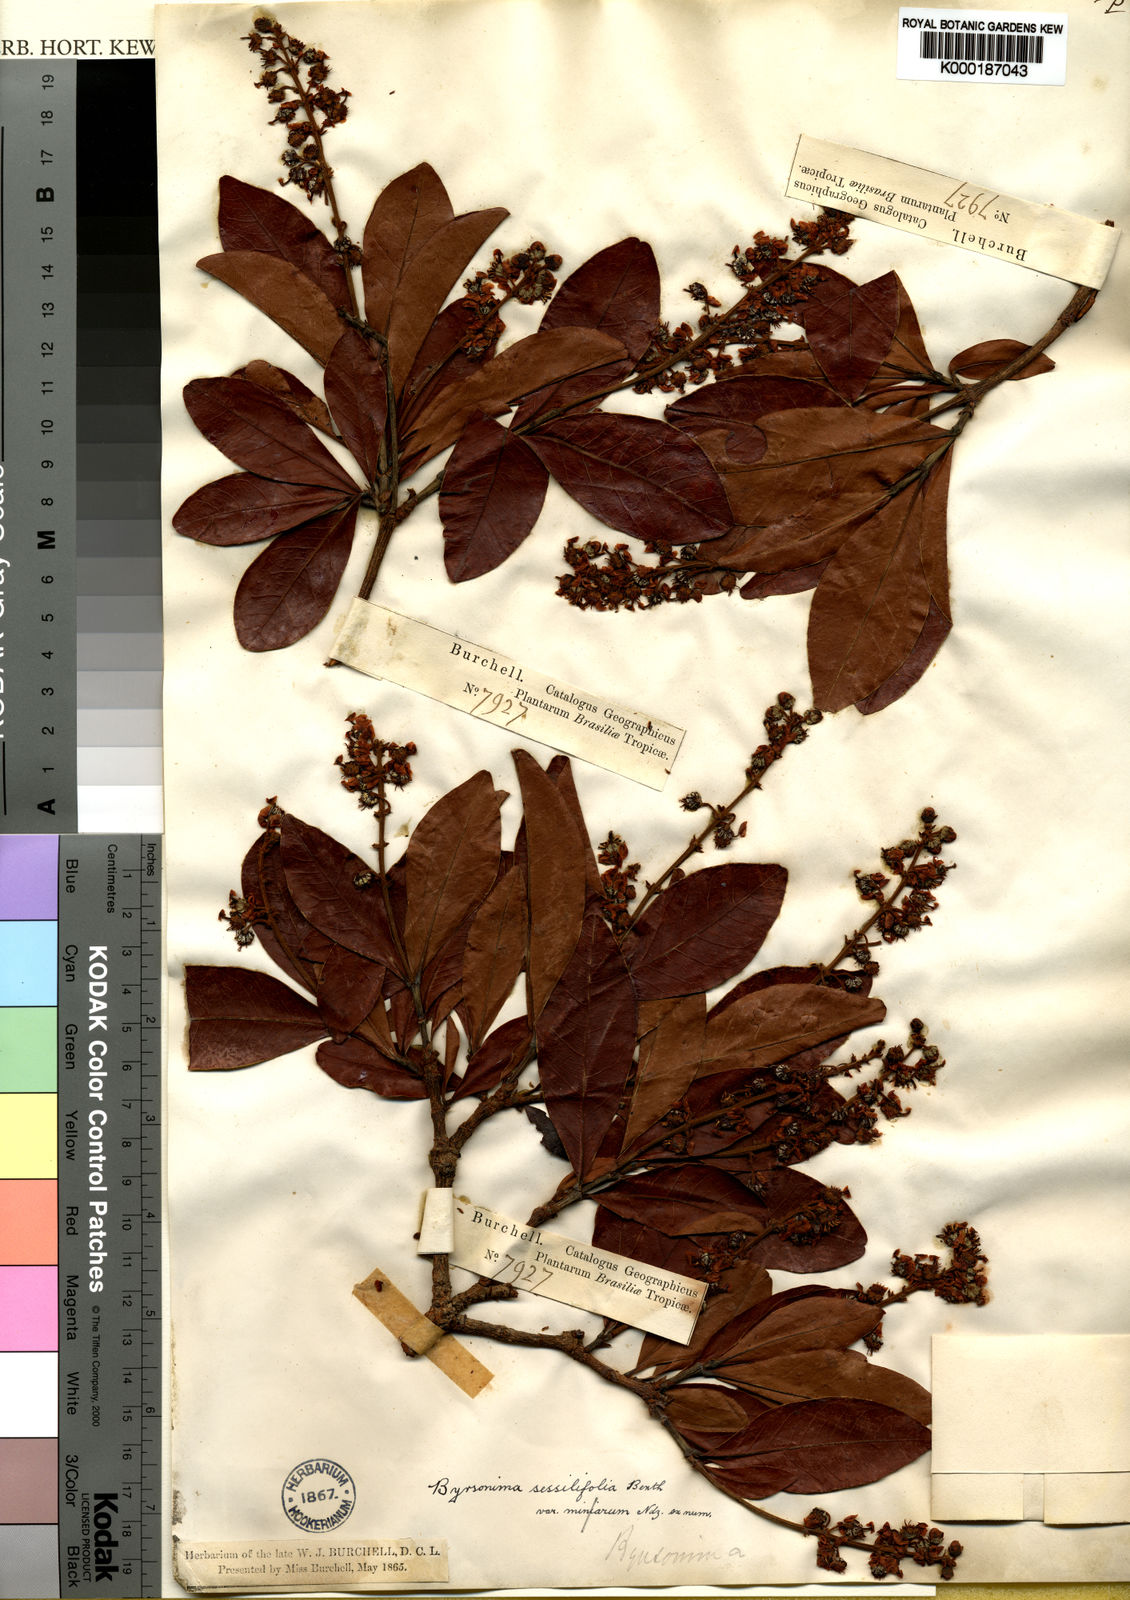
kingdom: Plantae
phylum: Tracheophyta
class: Magnoliopsida
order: Malpighiales
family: Malpighiaceae
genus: Byrsonima
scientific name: Byrsonima vacciniifolia
